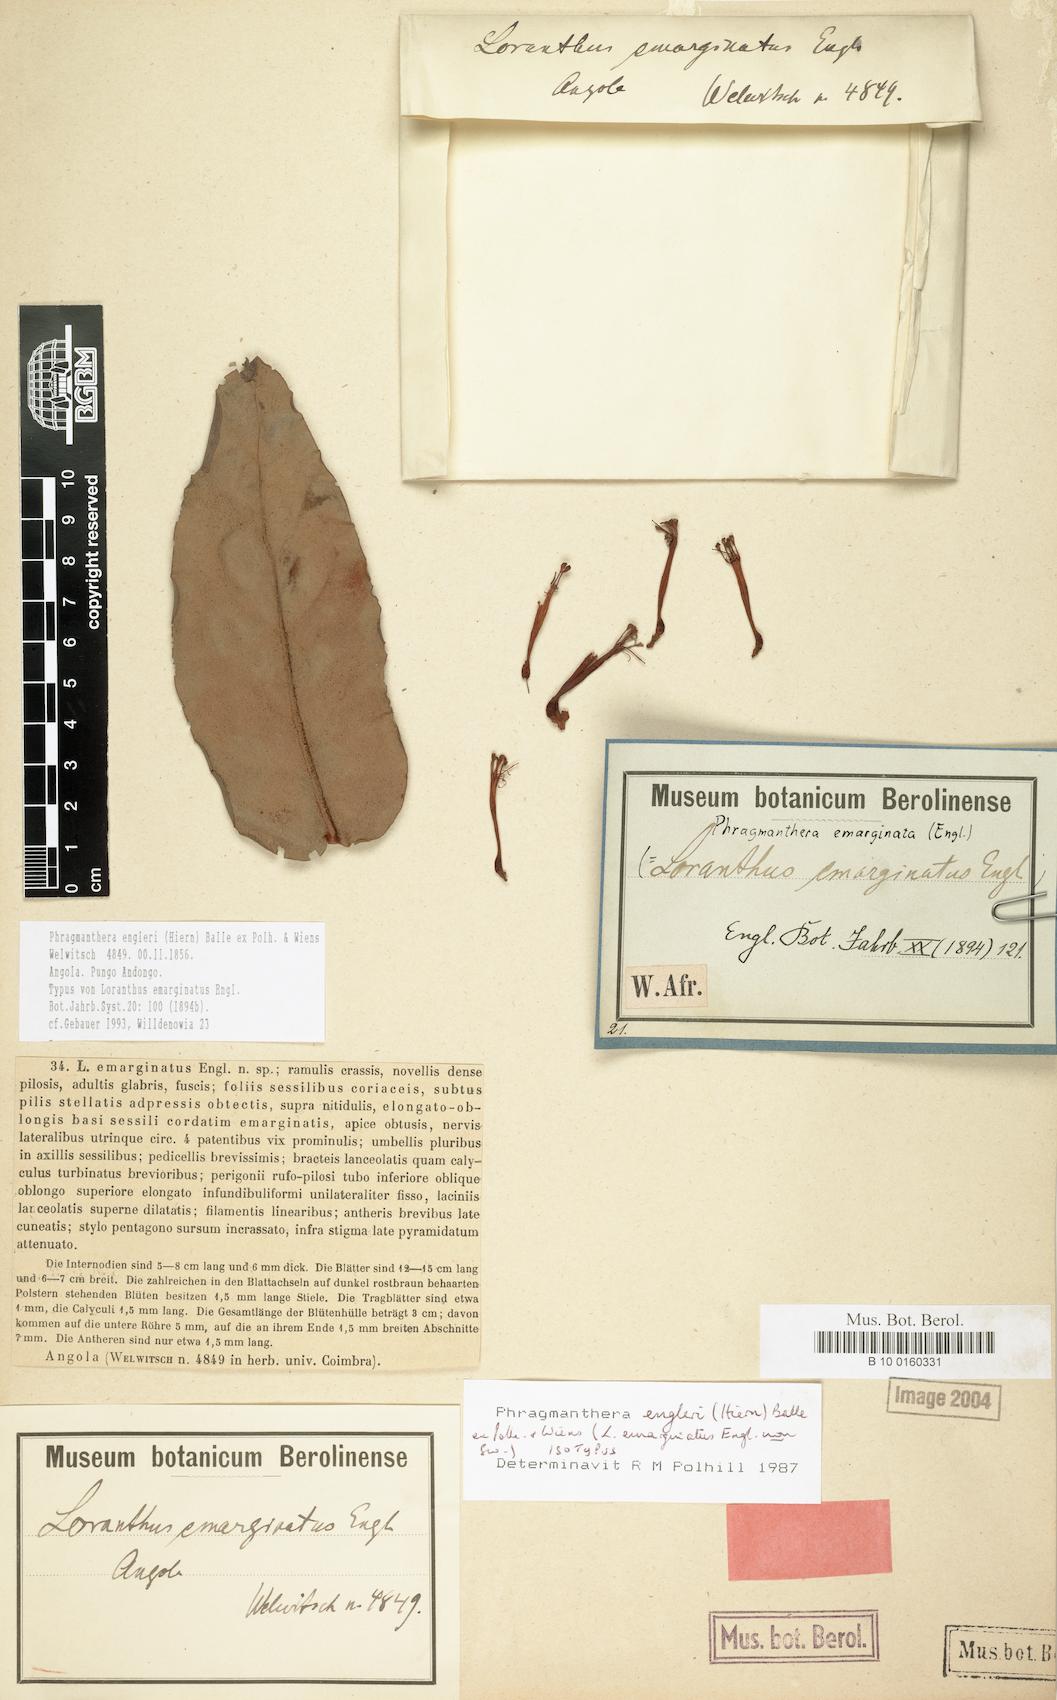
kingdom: Plantae
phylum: Tracheophyta
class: Magnoliopsida
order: Santalales
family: Loranthaceae
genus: Phragmanthera
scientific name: Phragmanthera engleri
